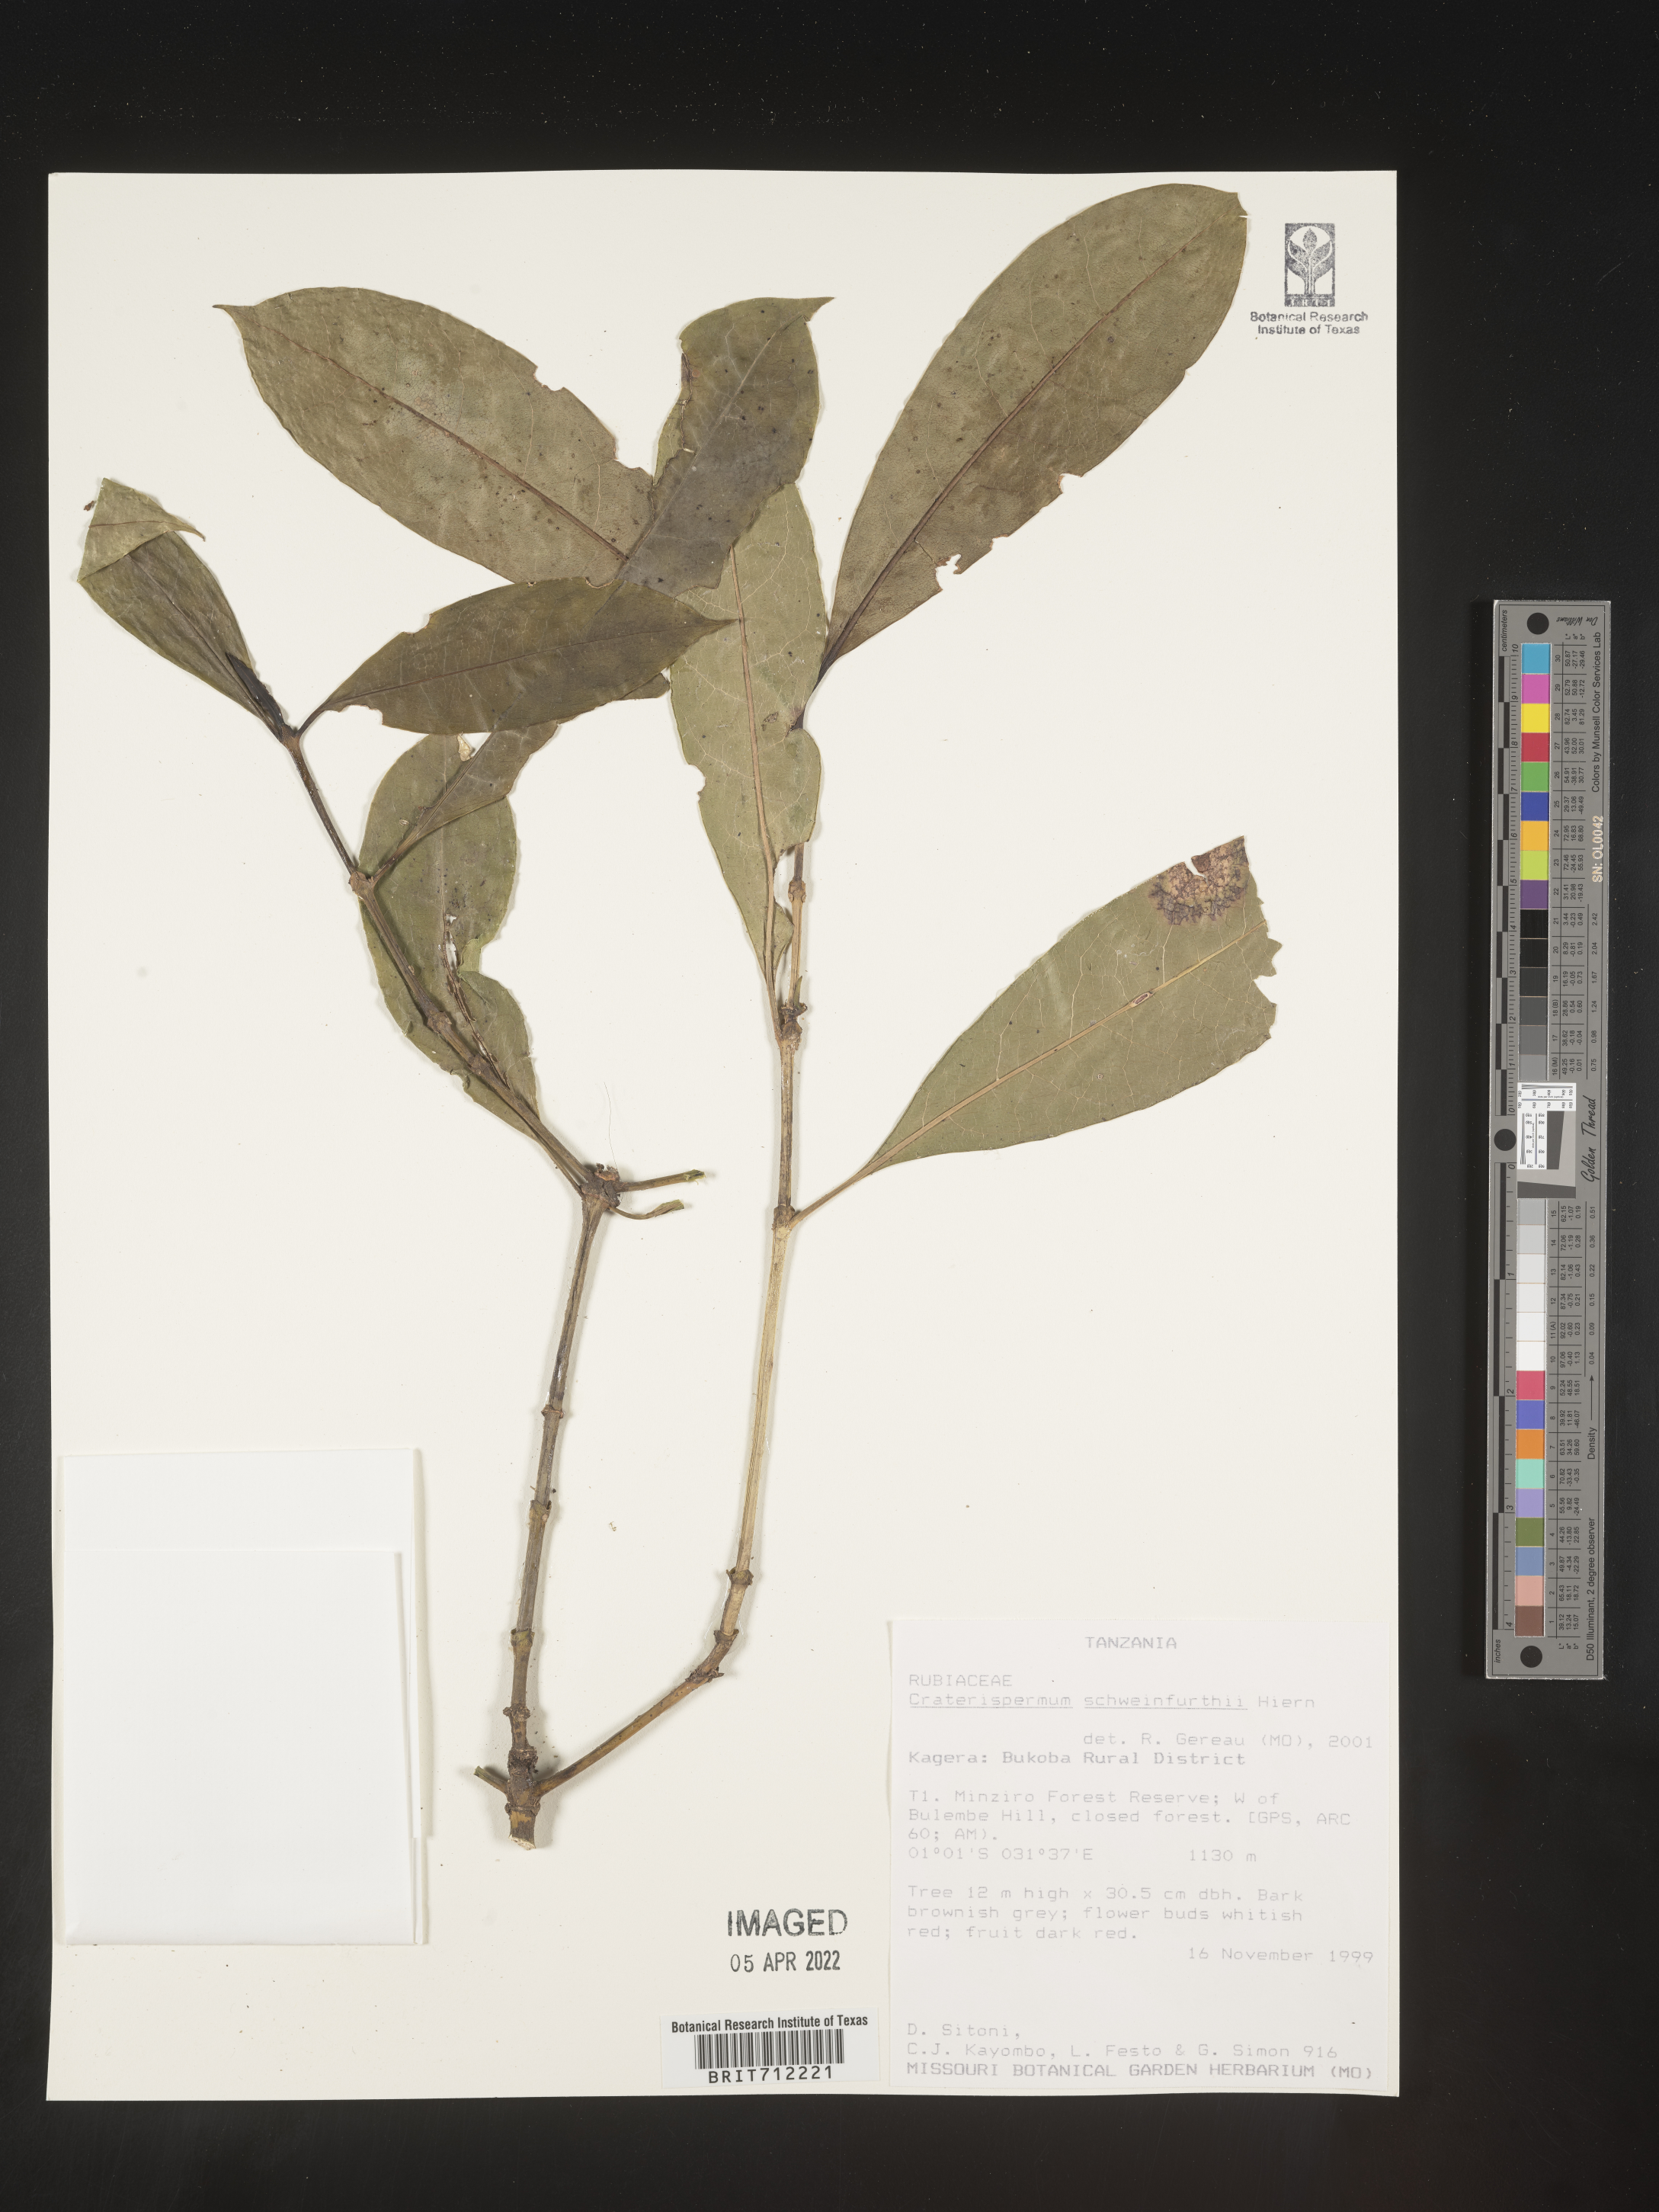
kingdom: Plantae
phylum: Tracheophyta
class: Magnoliopsida
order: Gentianales
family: Rubiaceae
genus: Craterispermum
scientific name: Craterispermum
